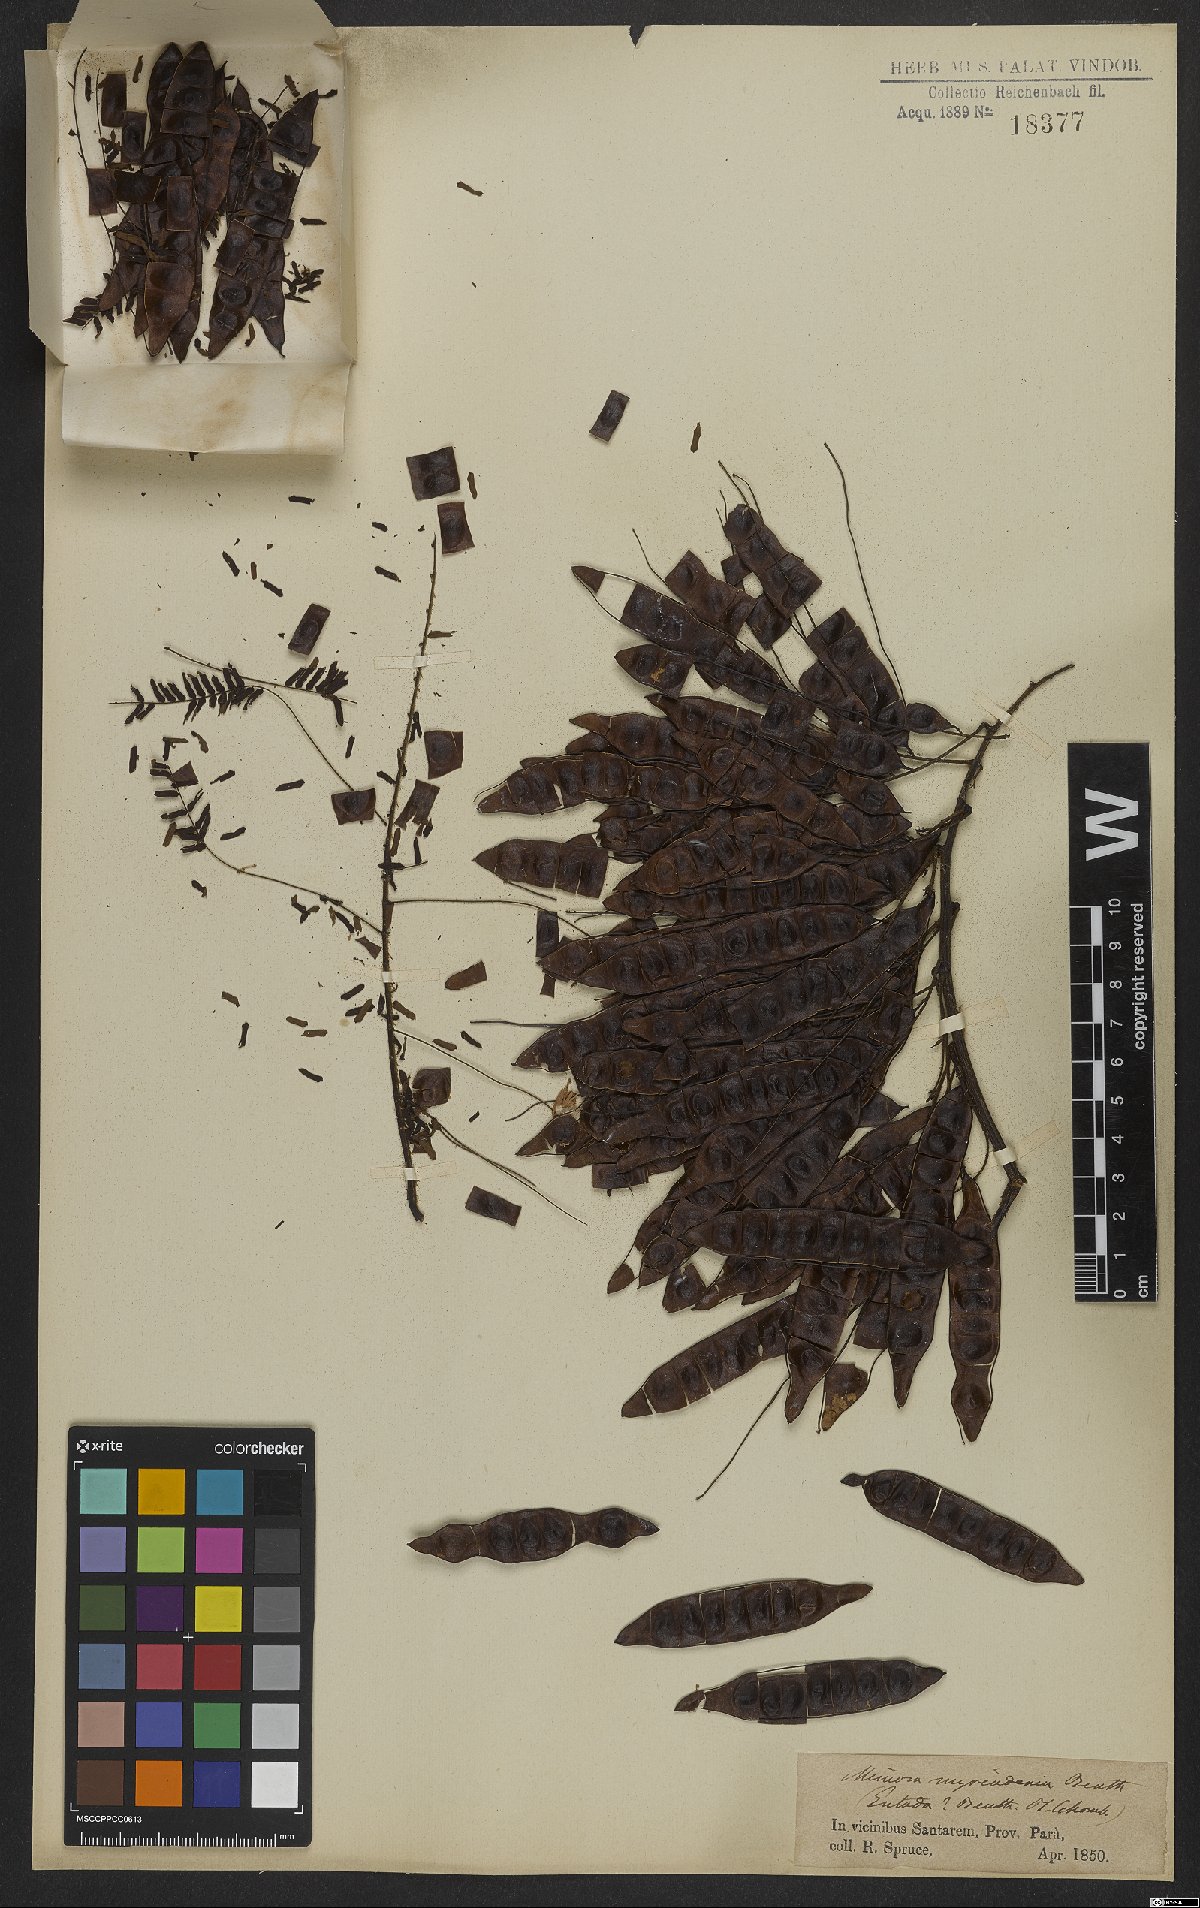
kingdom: Plantae
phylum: Tracheophyta
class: Magnoliopsida
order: Fabales
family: Fabaceae
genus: Mimosa
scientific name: Mimosa myriadenia
